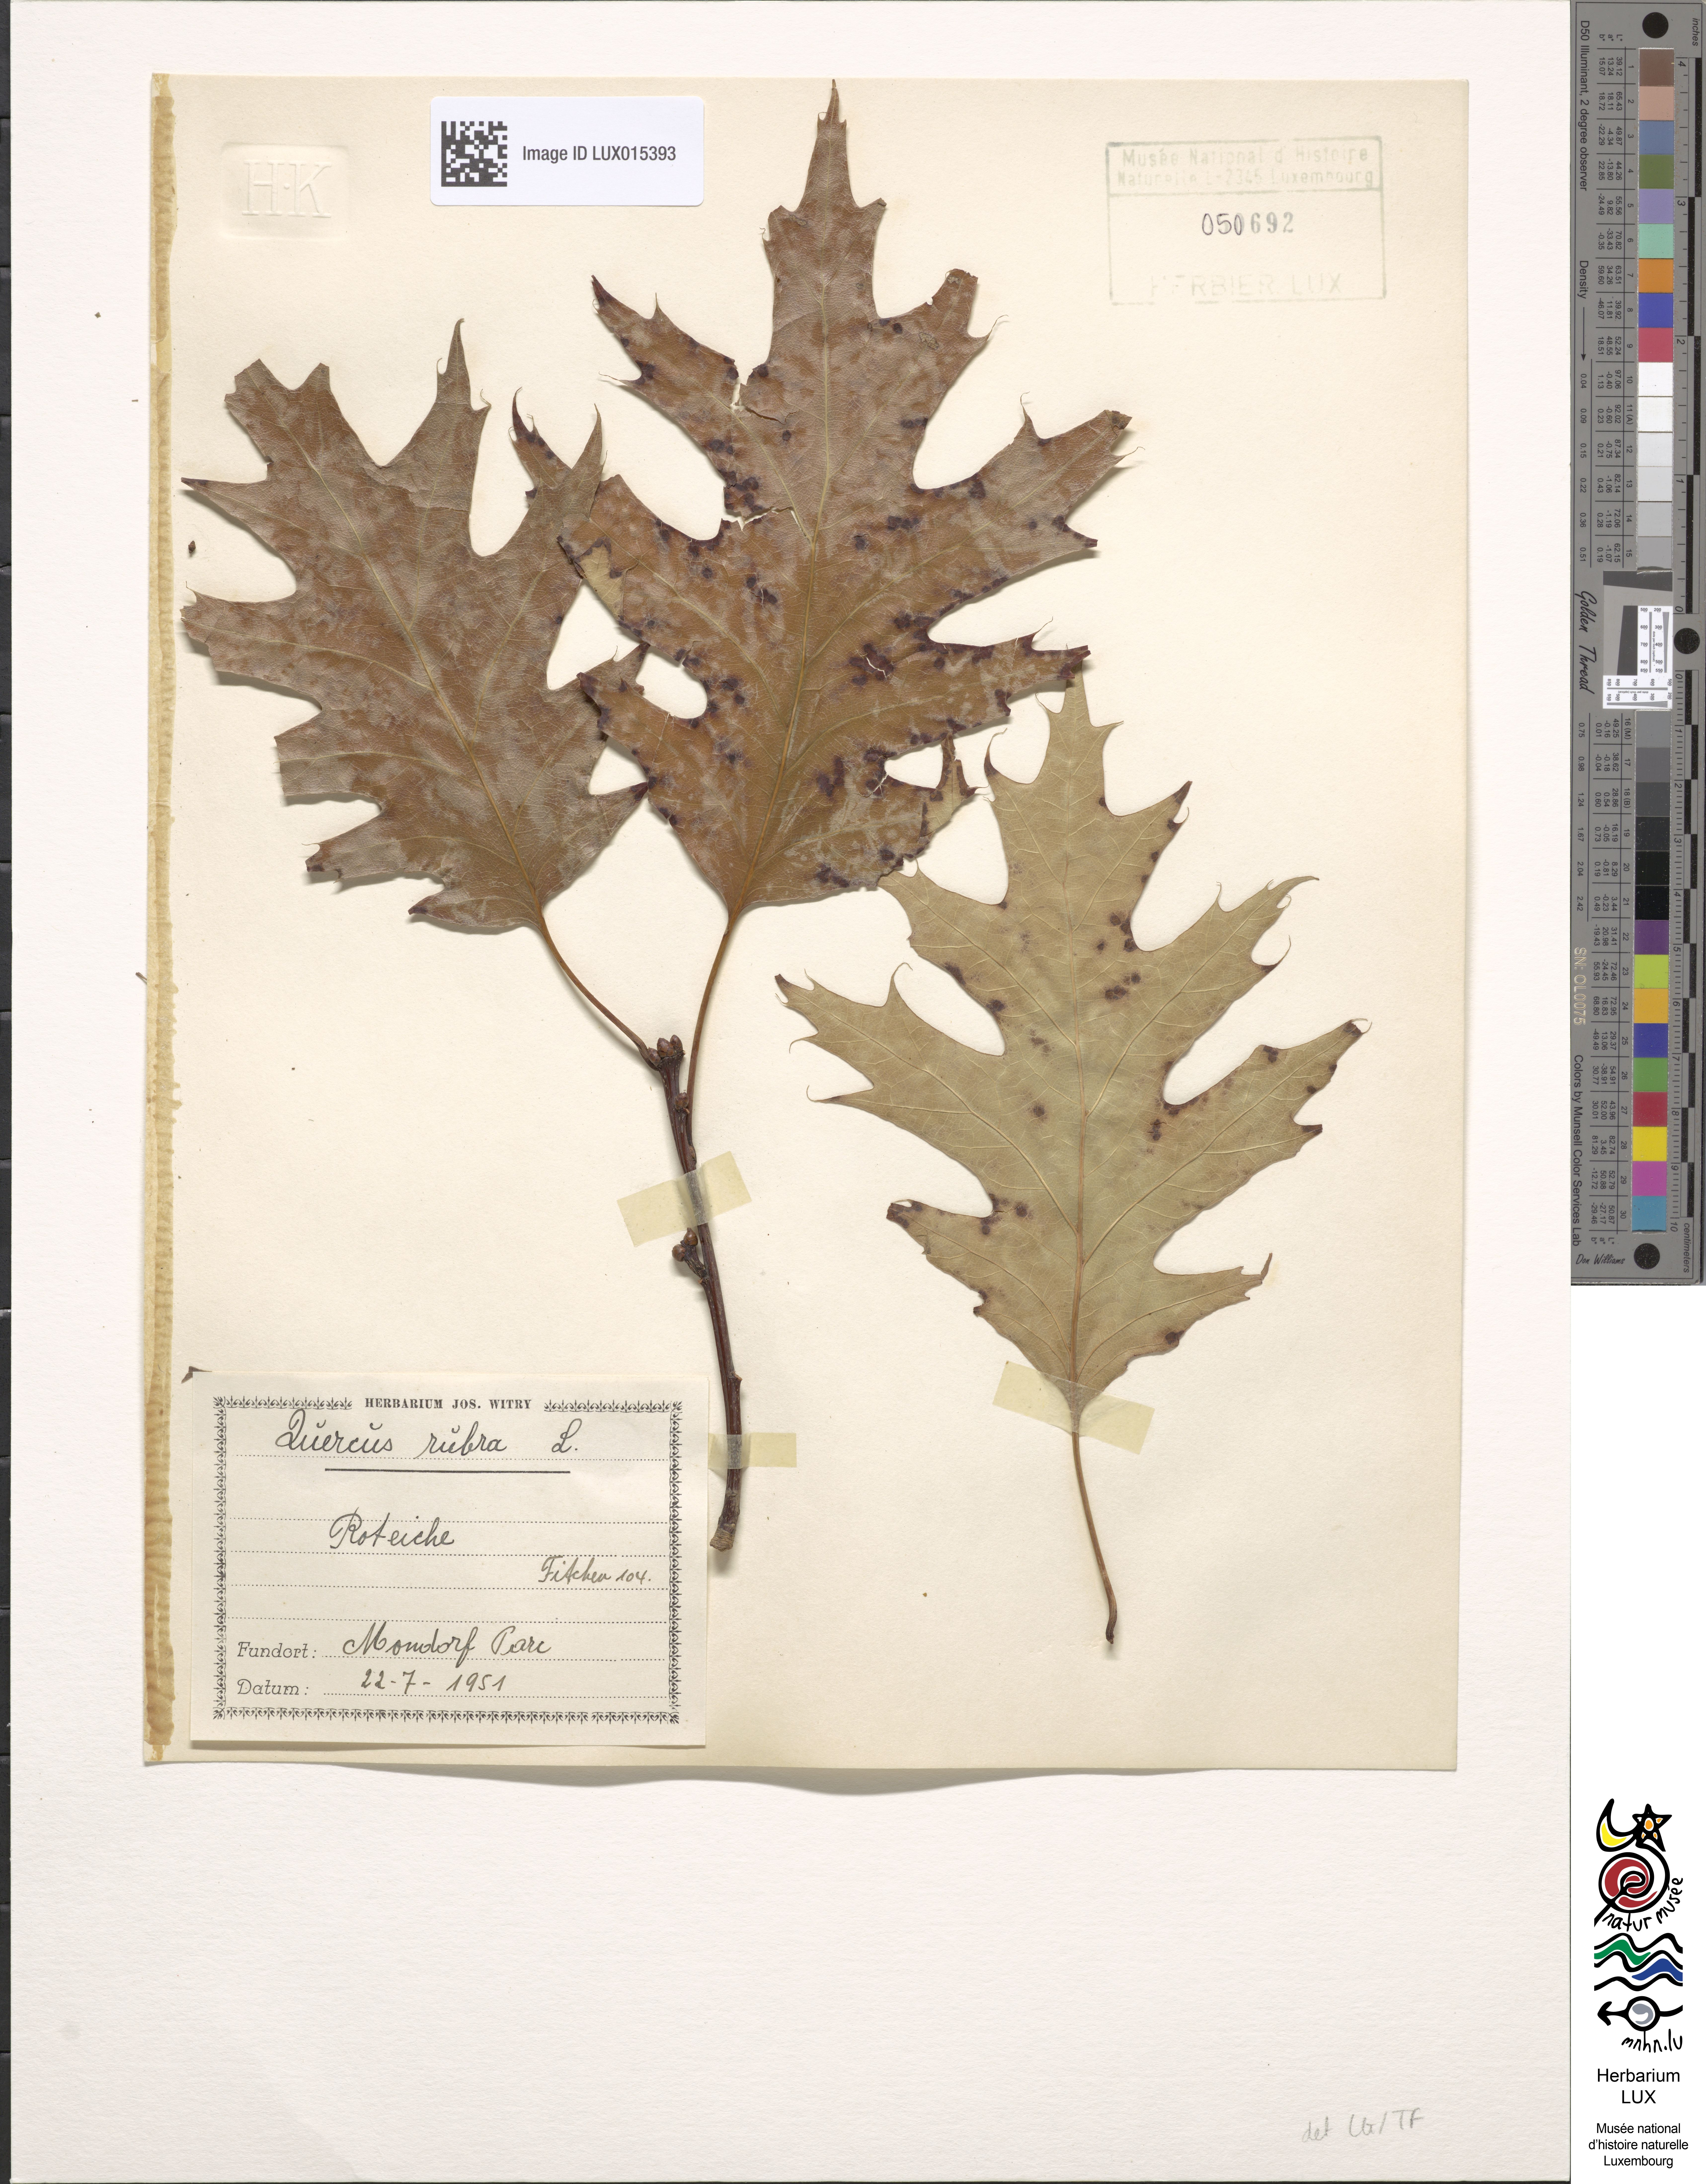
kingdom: Plantae
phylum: Tracheophyta
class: Magnoliopsida
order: Fagales
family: Fagaceae
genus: Quercus
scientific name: Quercus rubra
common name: Red oak
